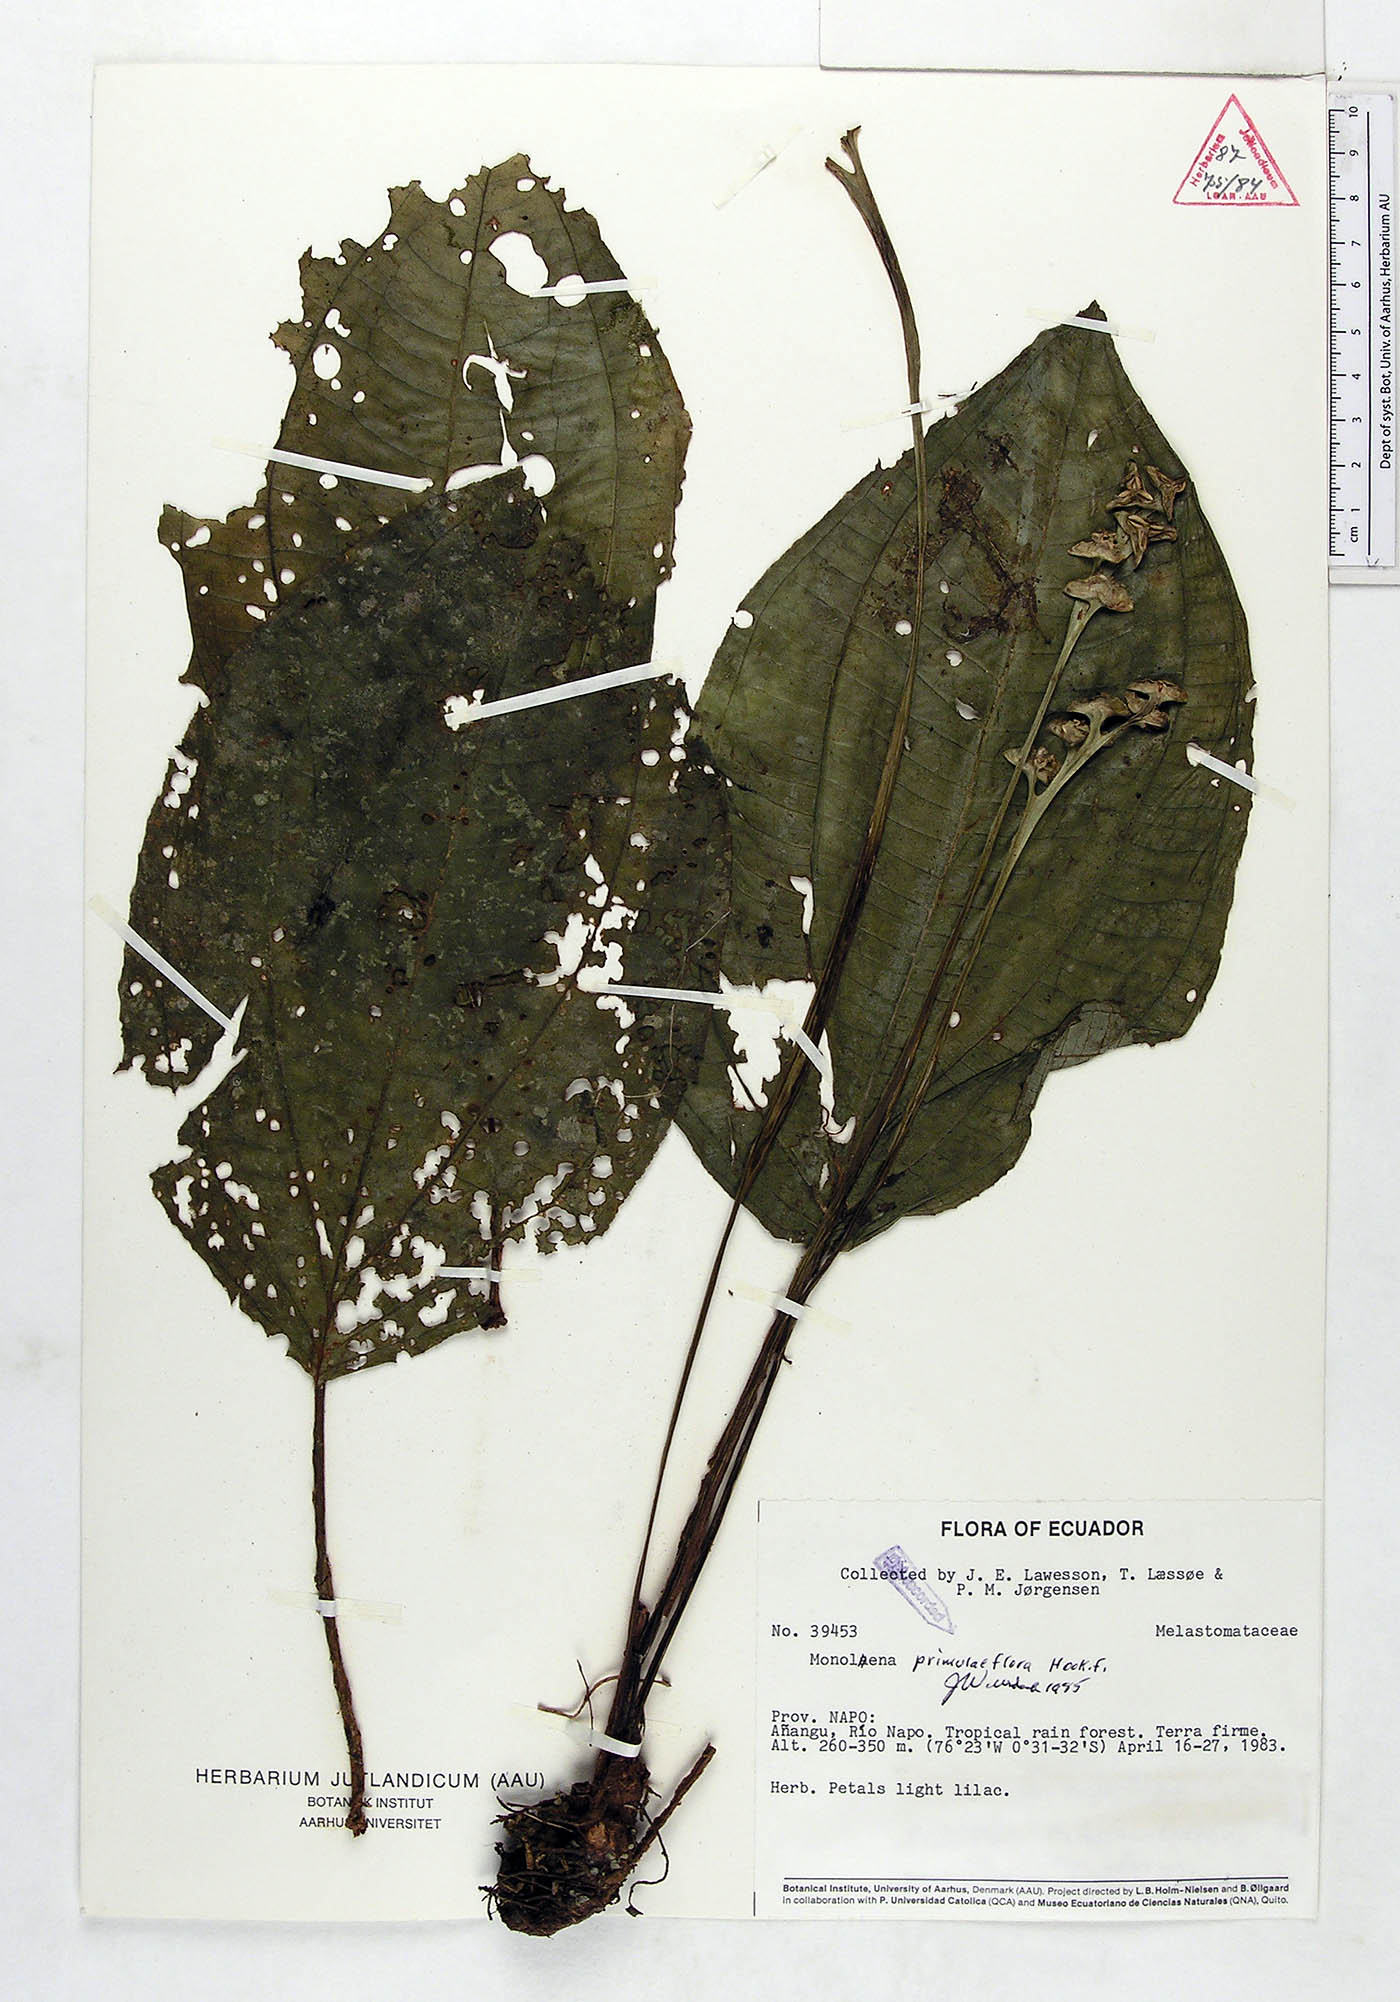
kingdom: Plantae
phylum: Tracheophyta
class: Magnoliopsida
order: Myrtales
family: Melastomataceae
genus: Monolena
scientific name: Monolena primuliflora
